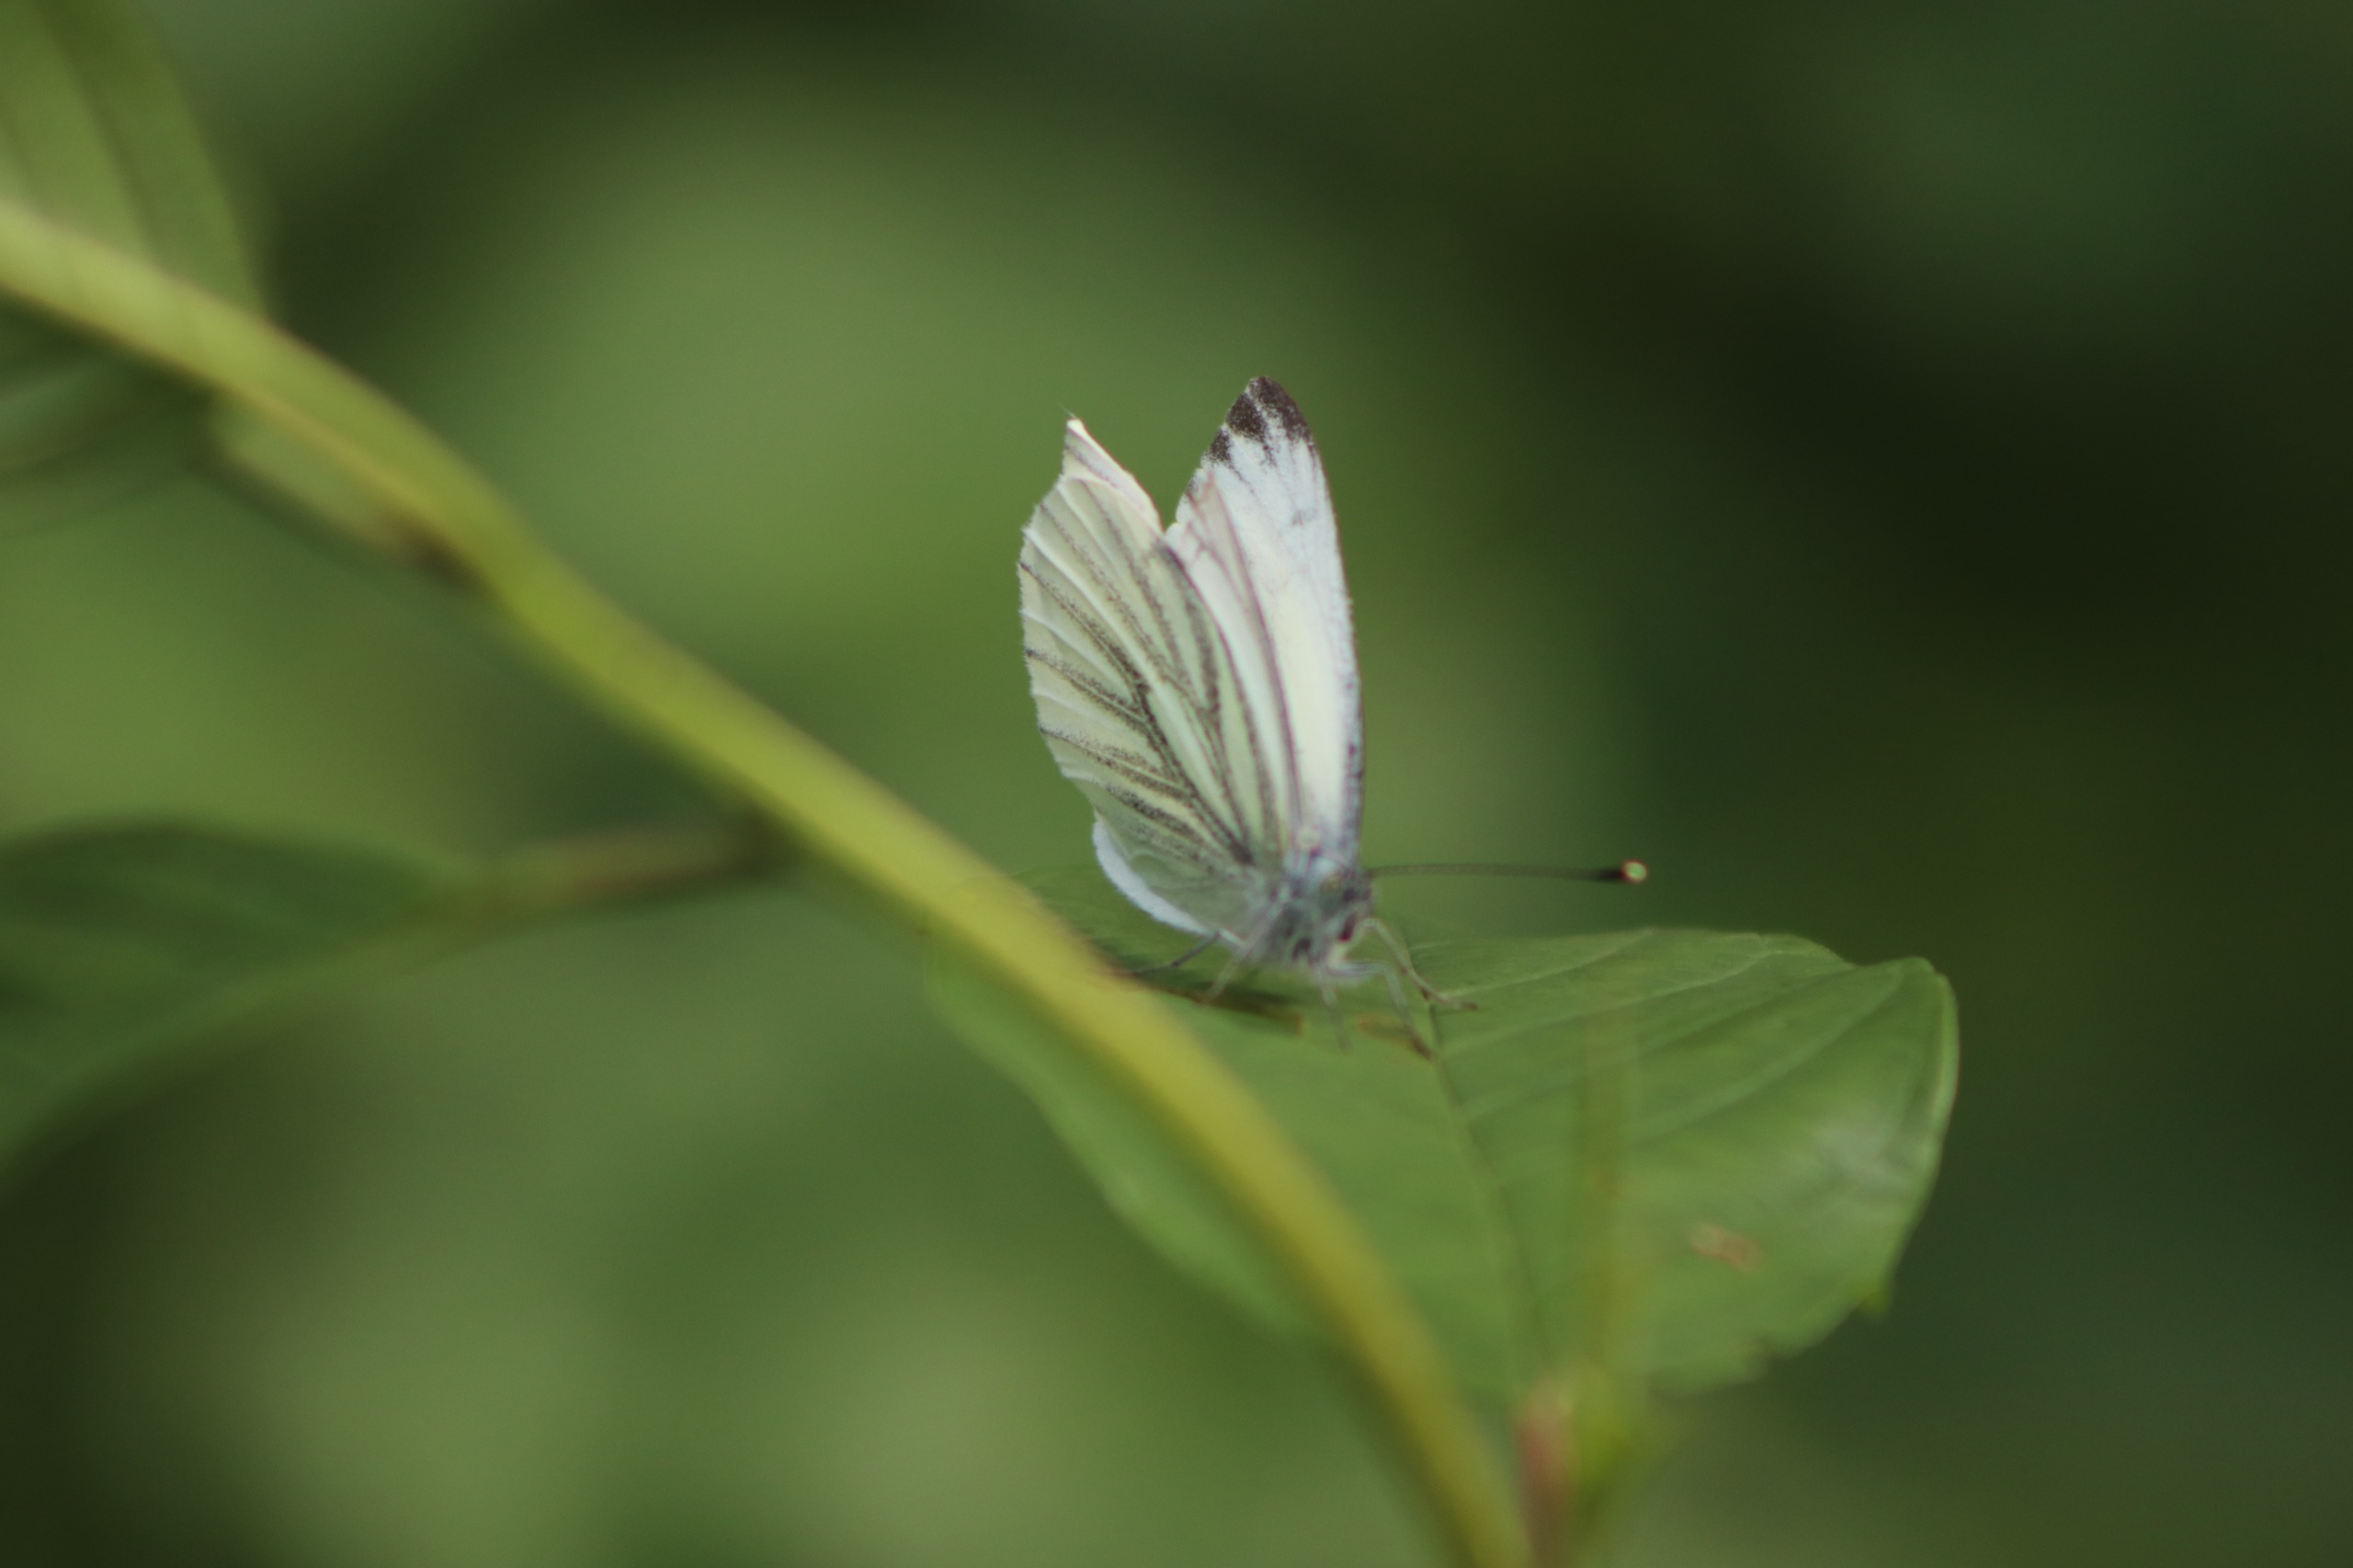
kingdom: Animalia
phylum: Arthropoda
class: Insecta
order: Lepidoptera
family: Pieridae
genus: Pieris
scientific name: Pieris napi
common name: Grønåret kålsommerfugl
